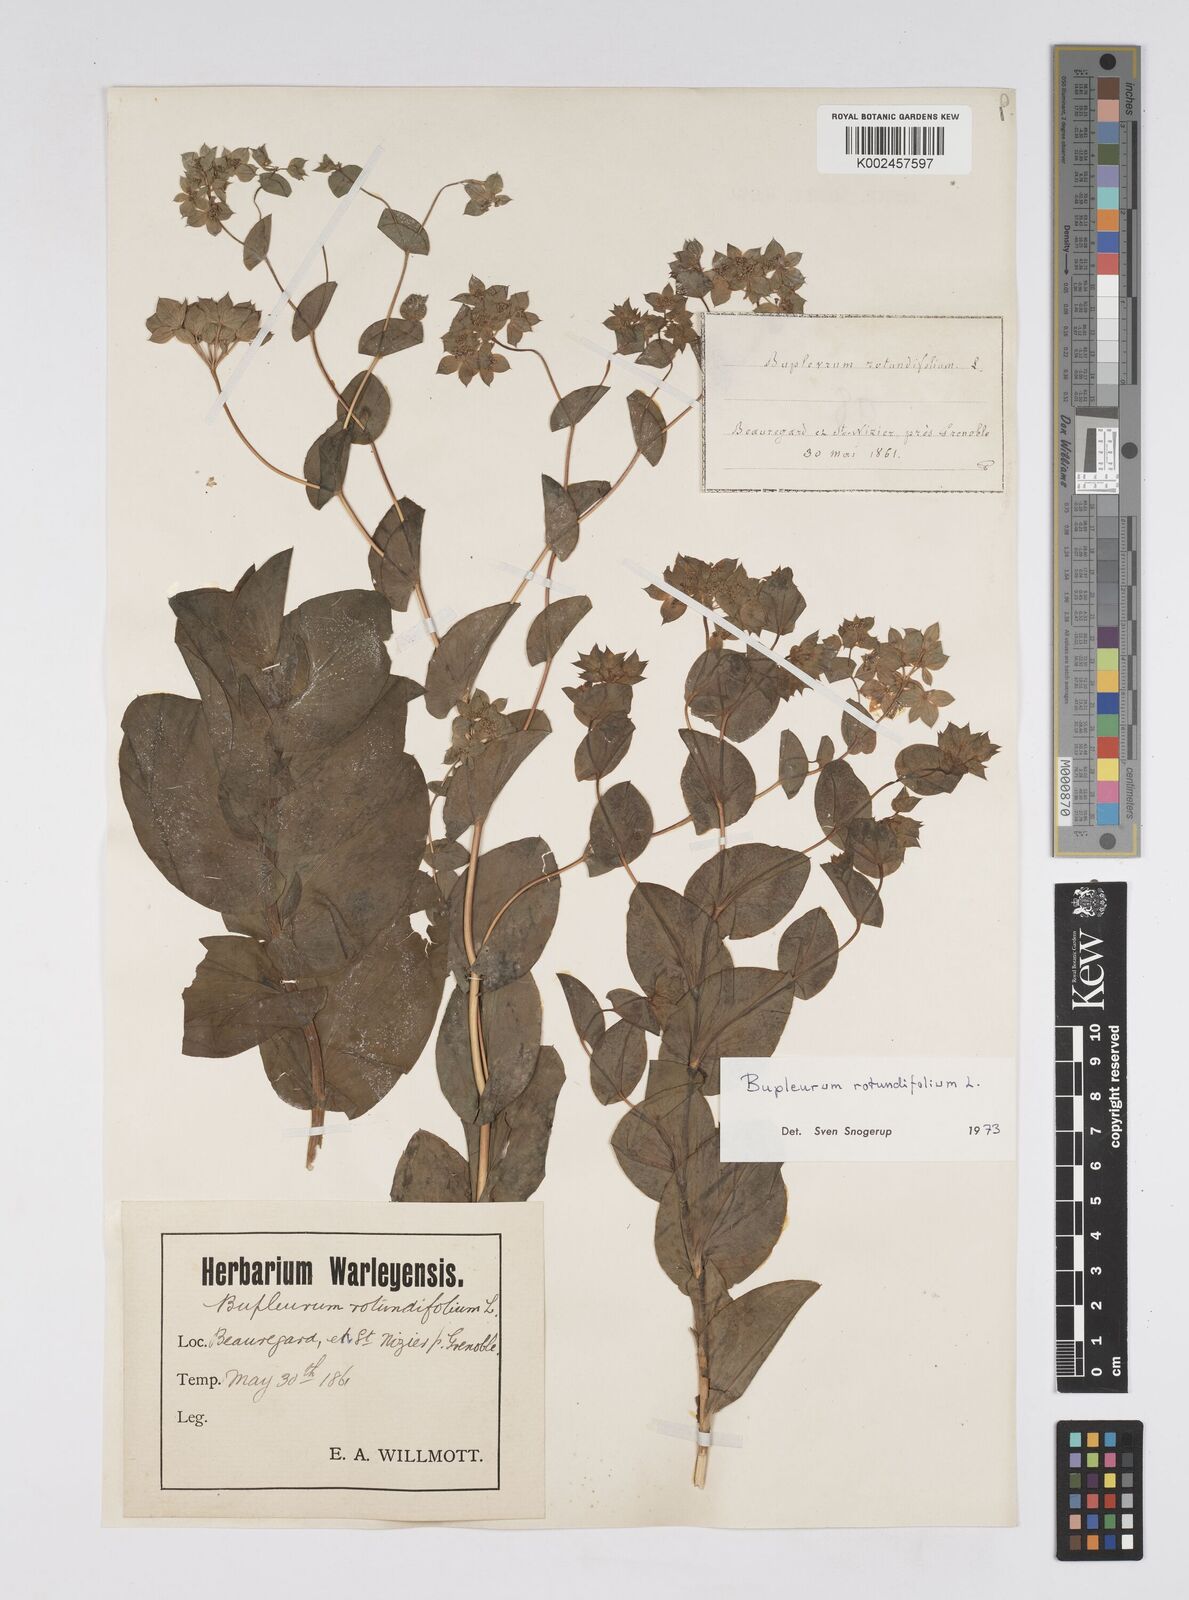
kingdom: Plantae
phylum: Tracheophyta
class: Magnoliopsida
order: Apiales
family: Apiaceae
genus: Bupleurum
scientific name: Bupleurum rotundifolium
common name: Thorow-wax
